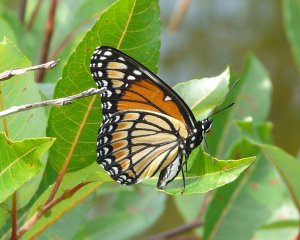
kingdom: Animalia
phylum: Arthropoda
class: Insecta
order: Lepidoptera
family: Nymphalidae
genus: Limenitis
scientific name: Limenitis archippus
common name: Viceroy
